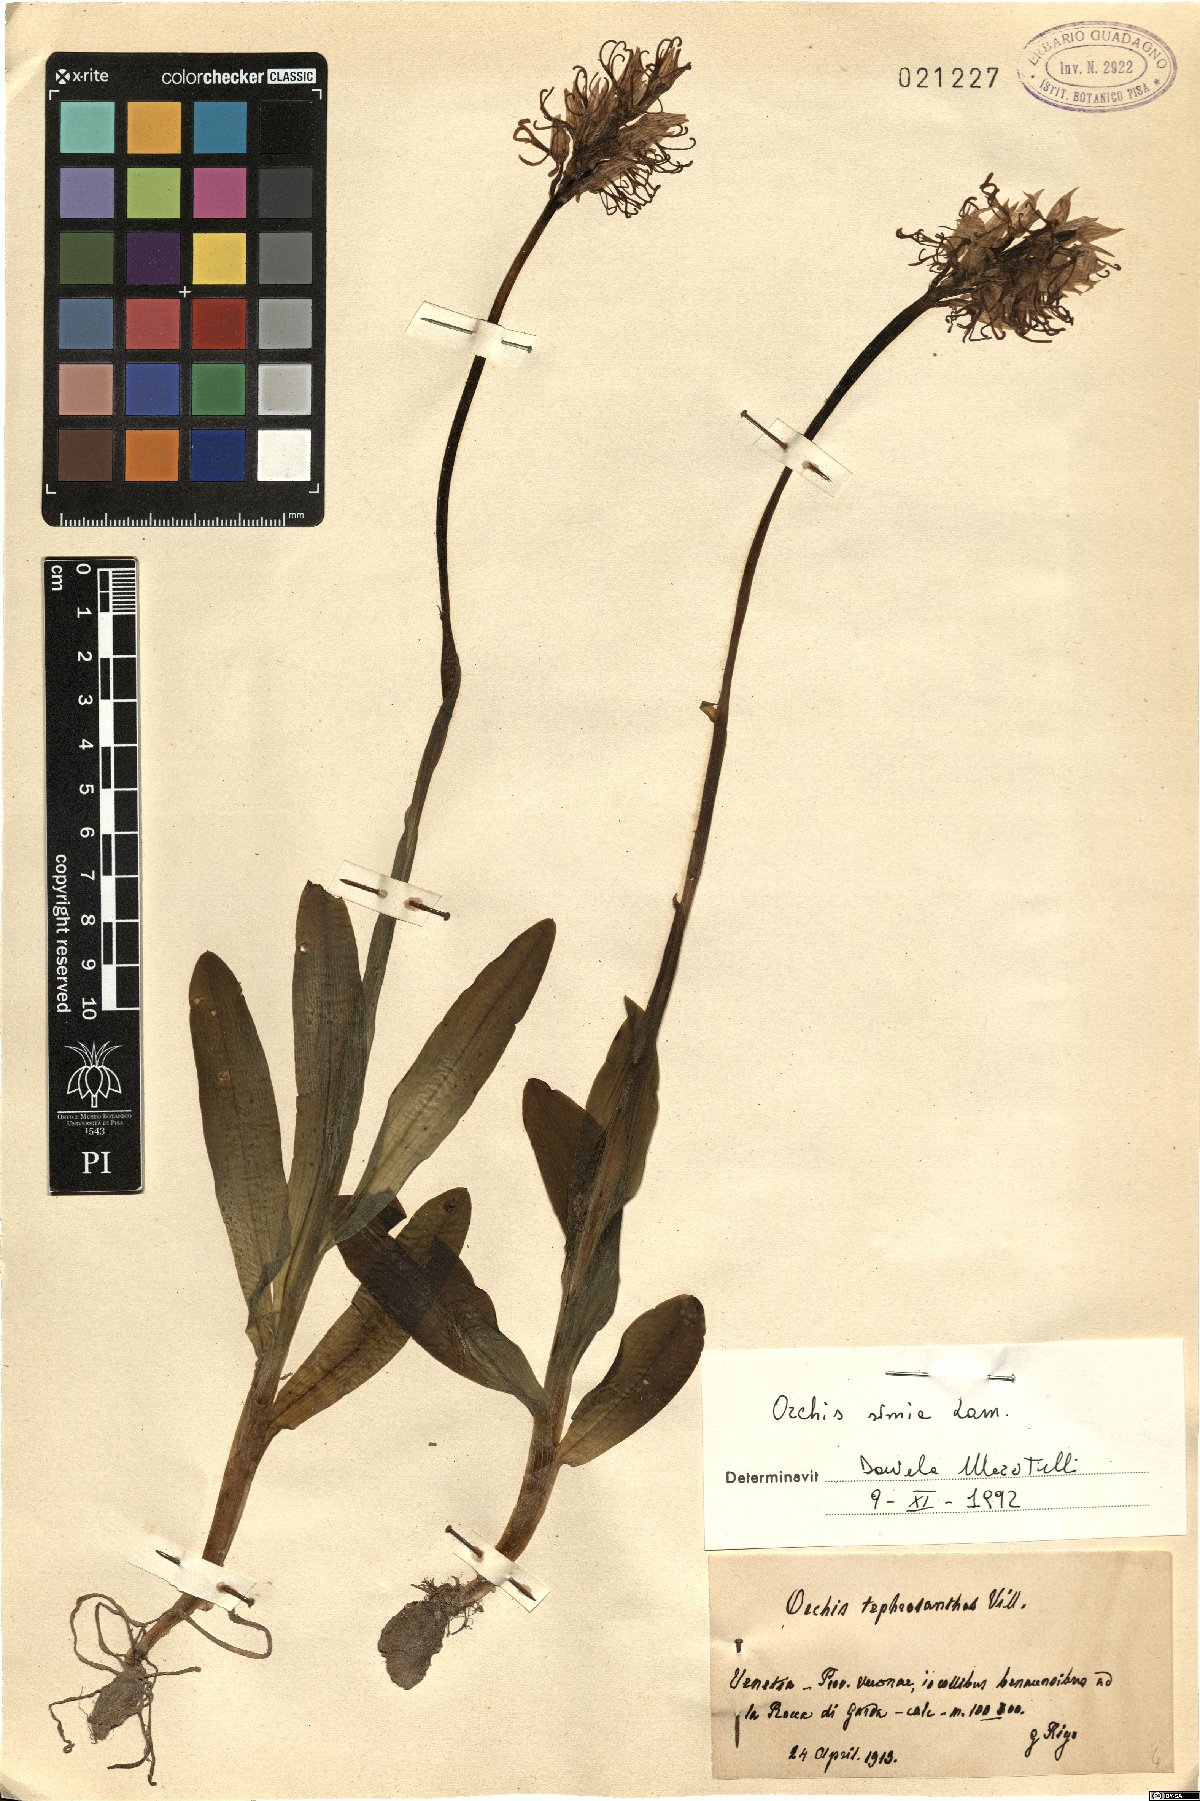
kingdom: Plantae
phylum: Tracheophyta
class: Liliopsida
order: Asparagales
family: Orchidaceae
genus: Orchis
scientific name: Orchis simia
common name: Monkey orchid
